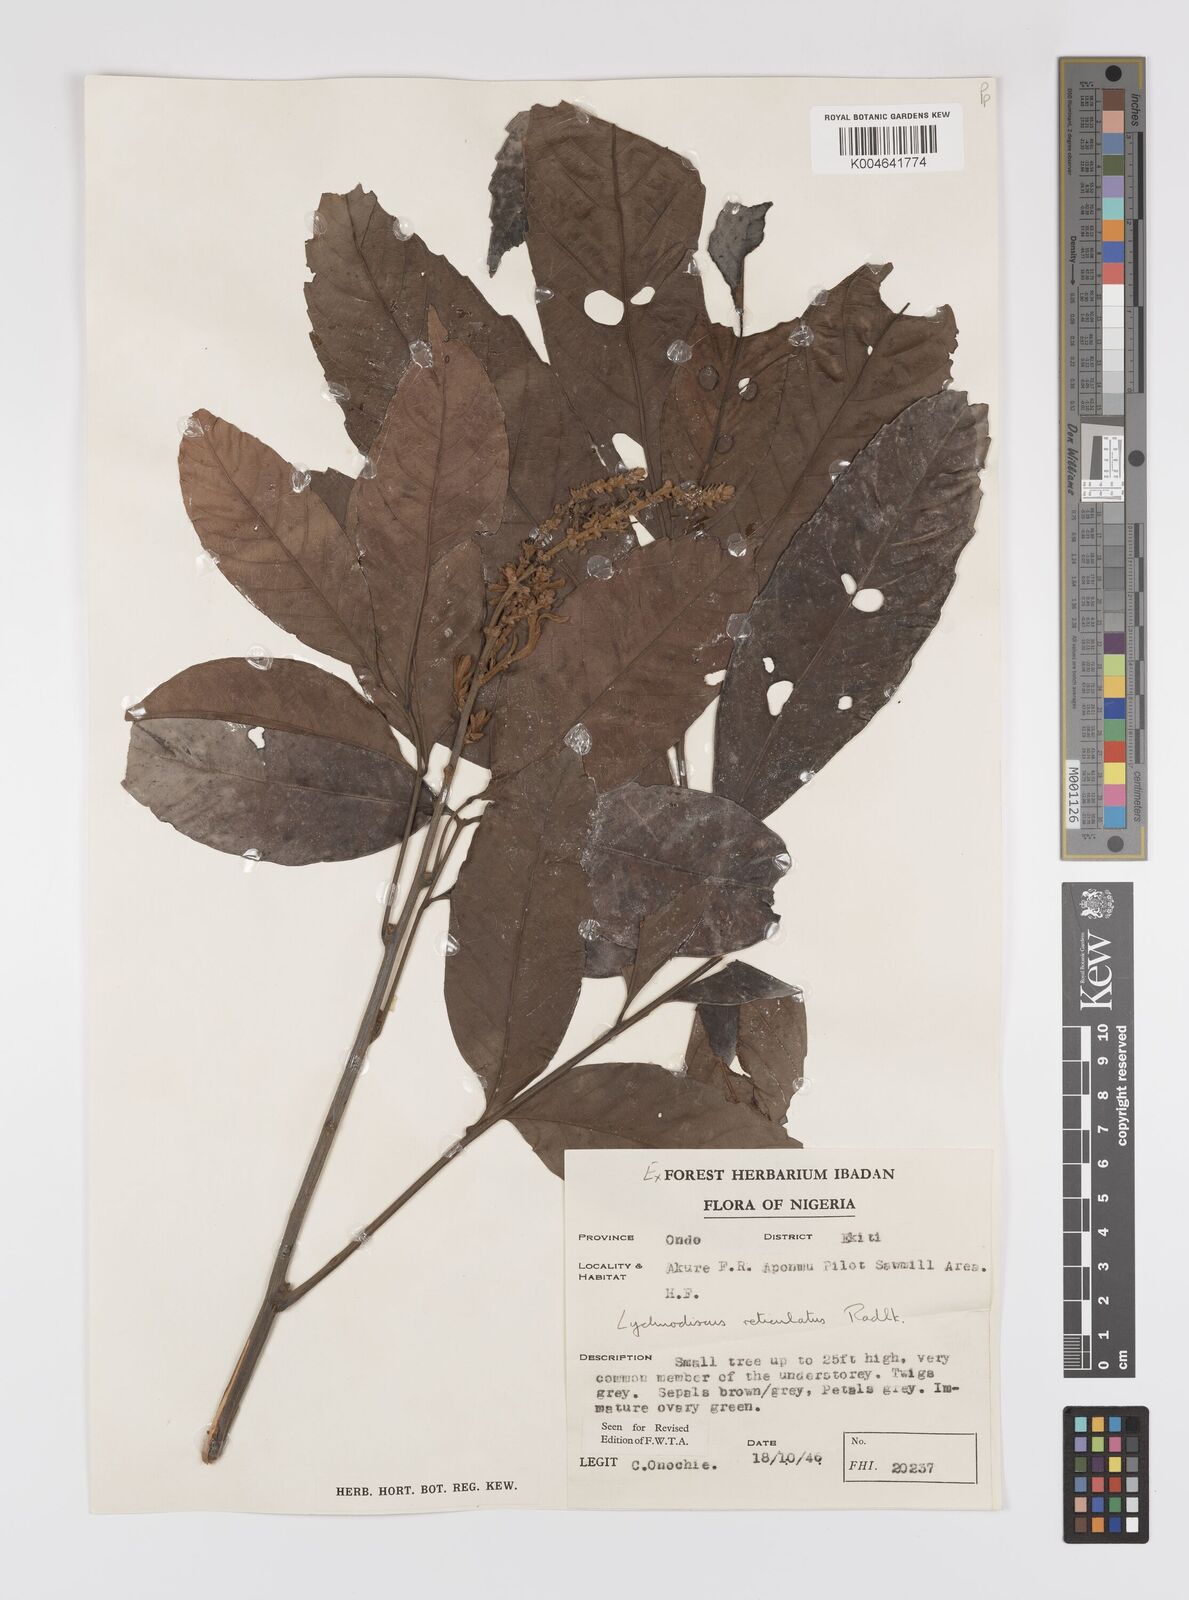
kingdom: Plantae
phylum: Tracheophyta
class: Magnoliopsida
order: Sapindales
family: Sapindaceae
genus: Lychnodiscus
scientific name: Lychnodiscus reticulatus
